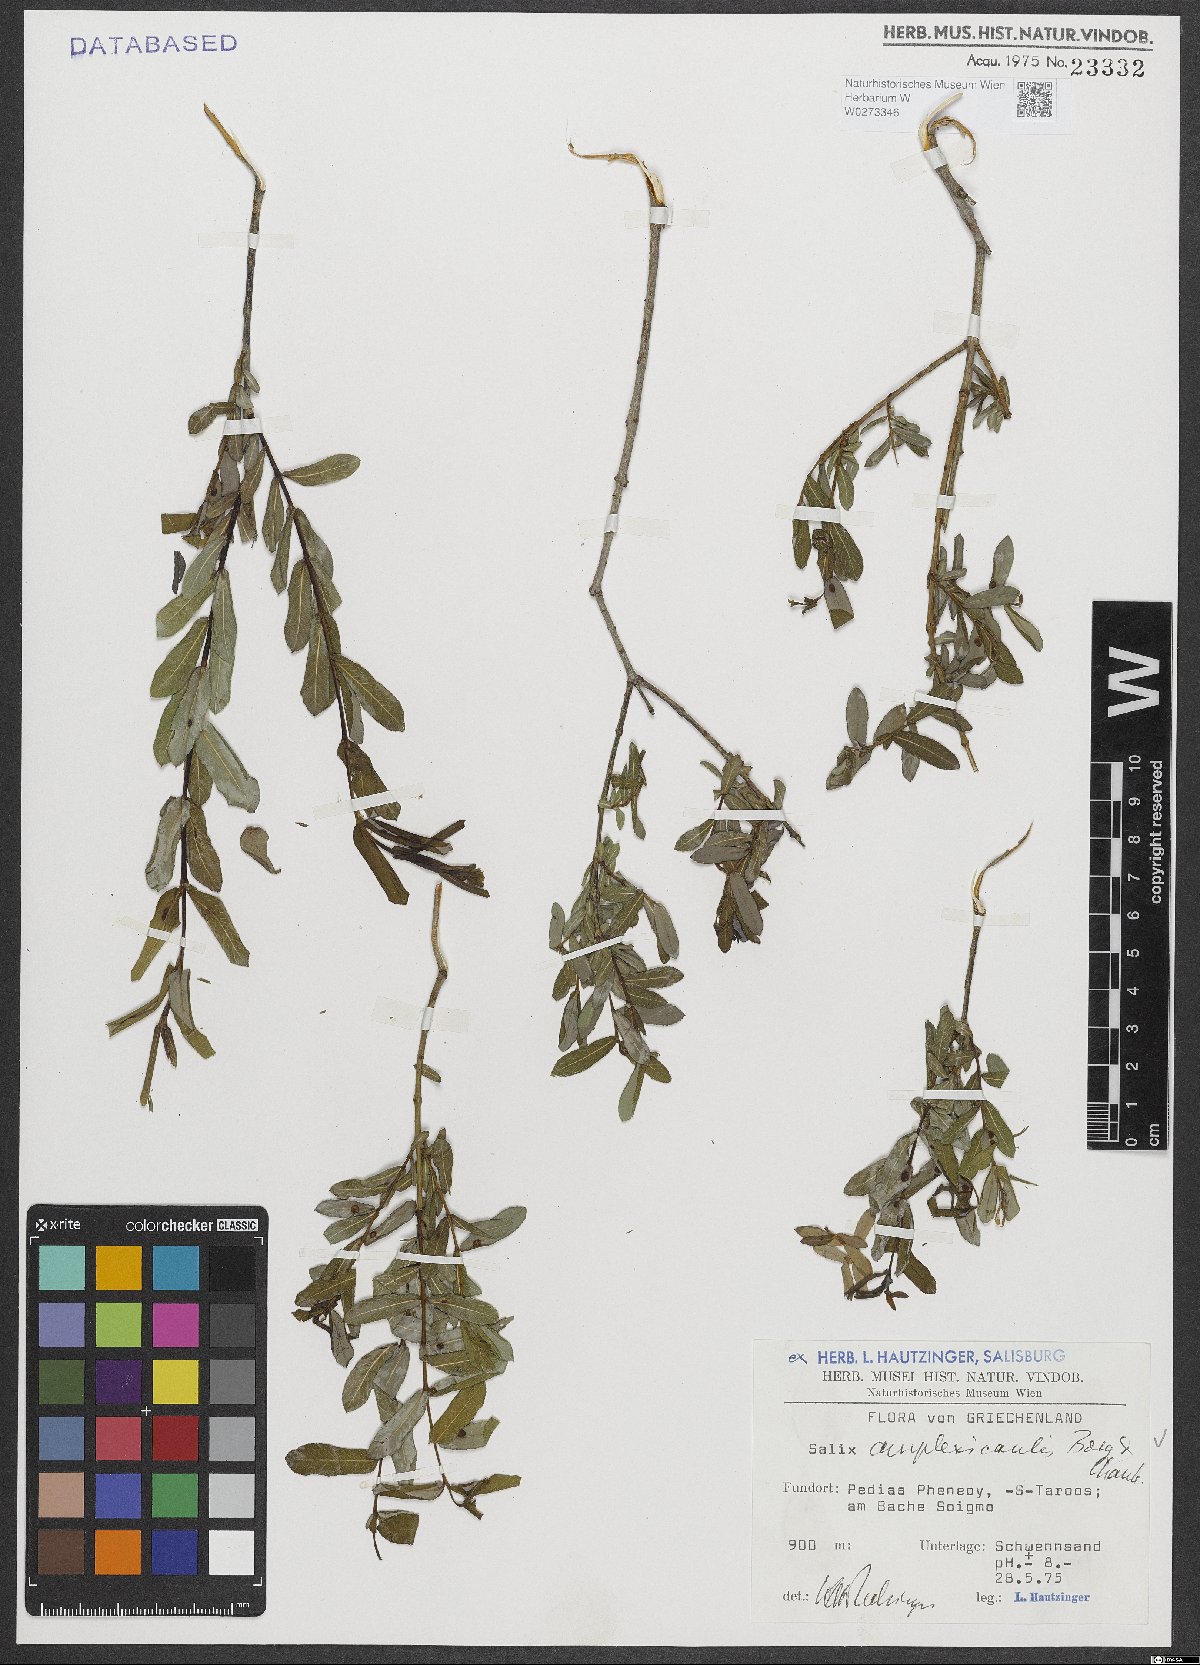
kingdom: Plantae
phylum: Tracheophyta
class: Magnoliopsida
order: Malpighiales
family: Salicaceae
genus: Salix
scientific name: Salix amplexicaulis
